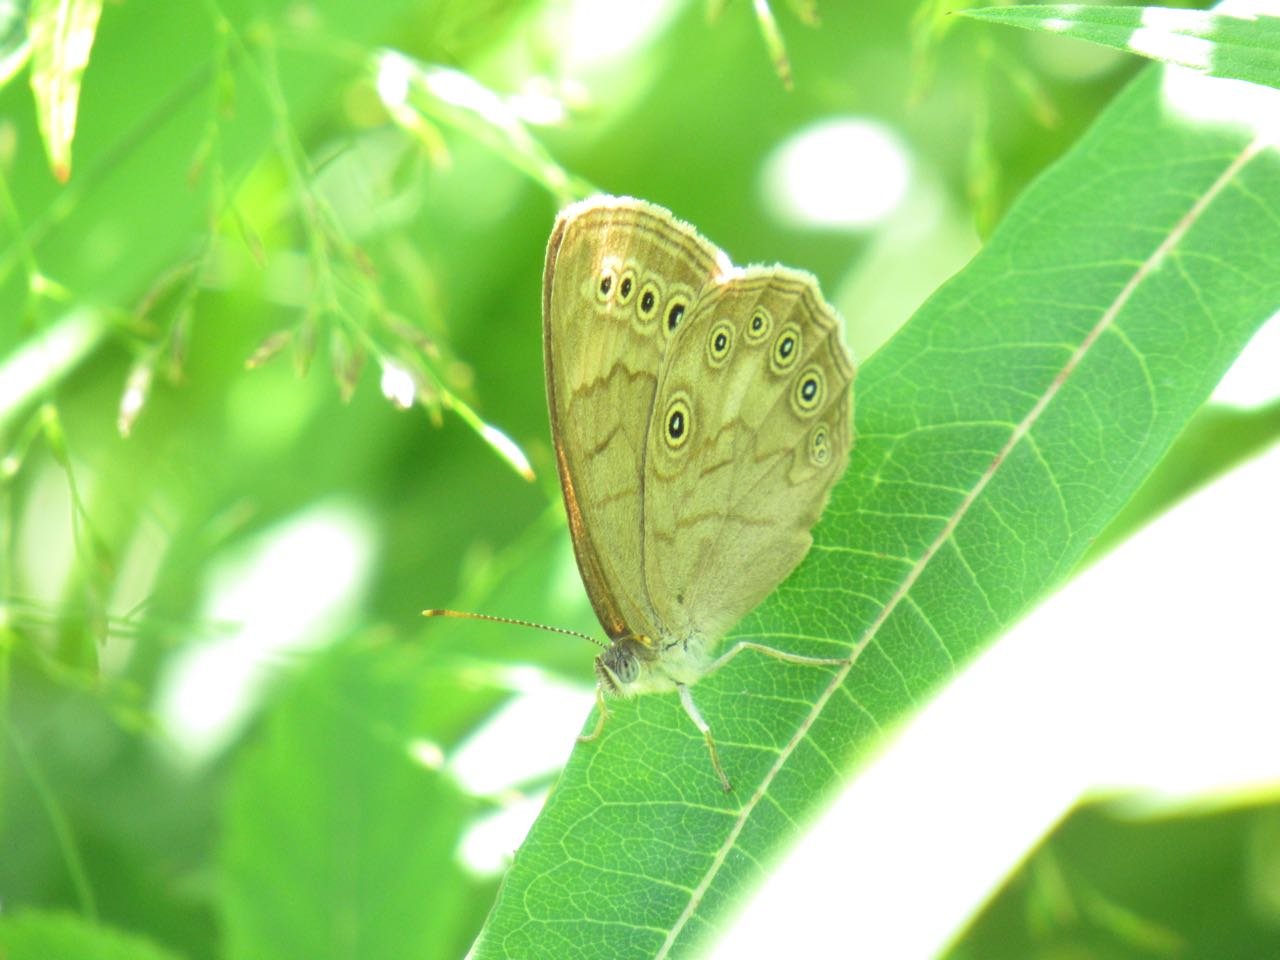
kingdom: Animalia
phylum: Arthropoda
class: Insecta
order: Lepidoptera
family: Nymphalidae
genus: Lethe
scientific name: Lethe eurydice
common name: Eyed Brown
